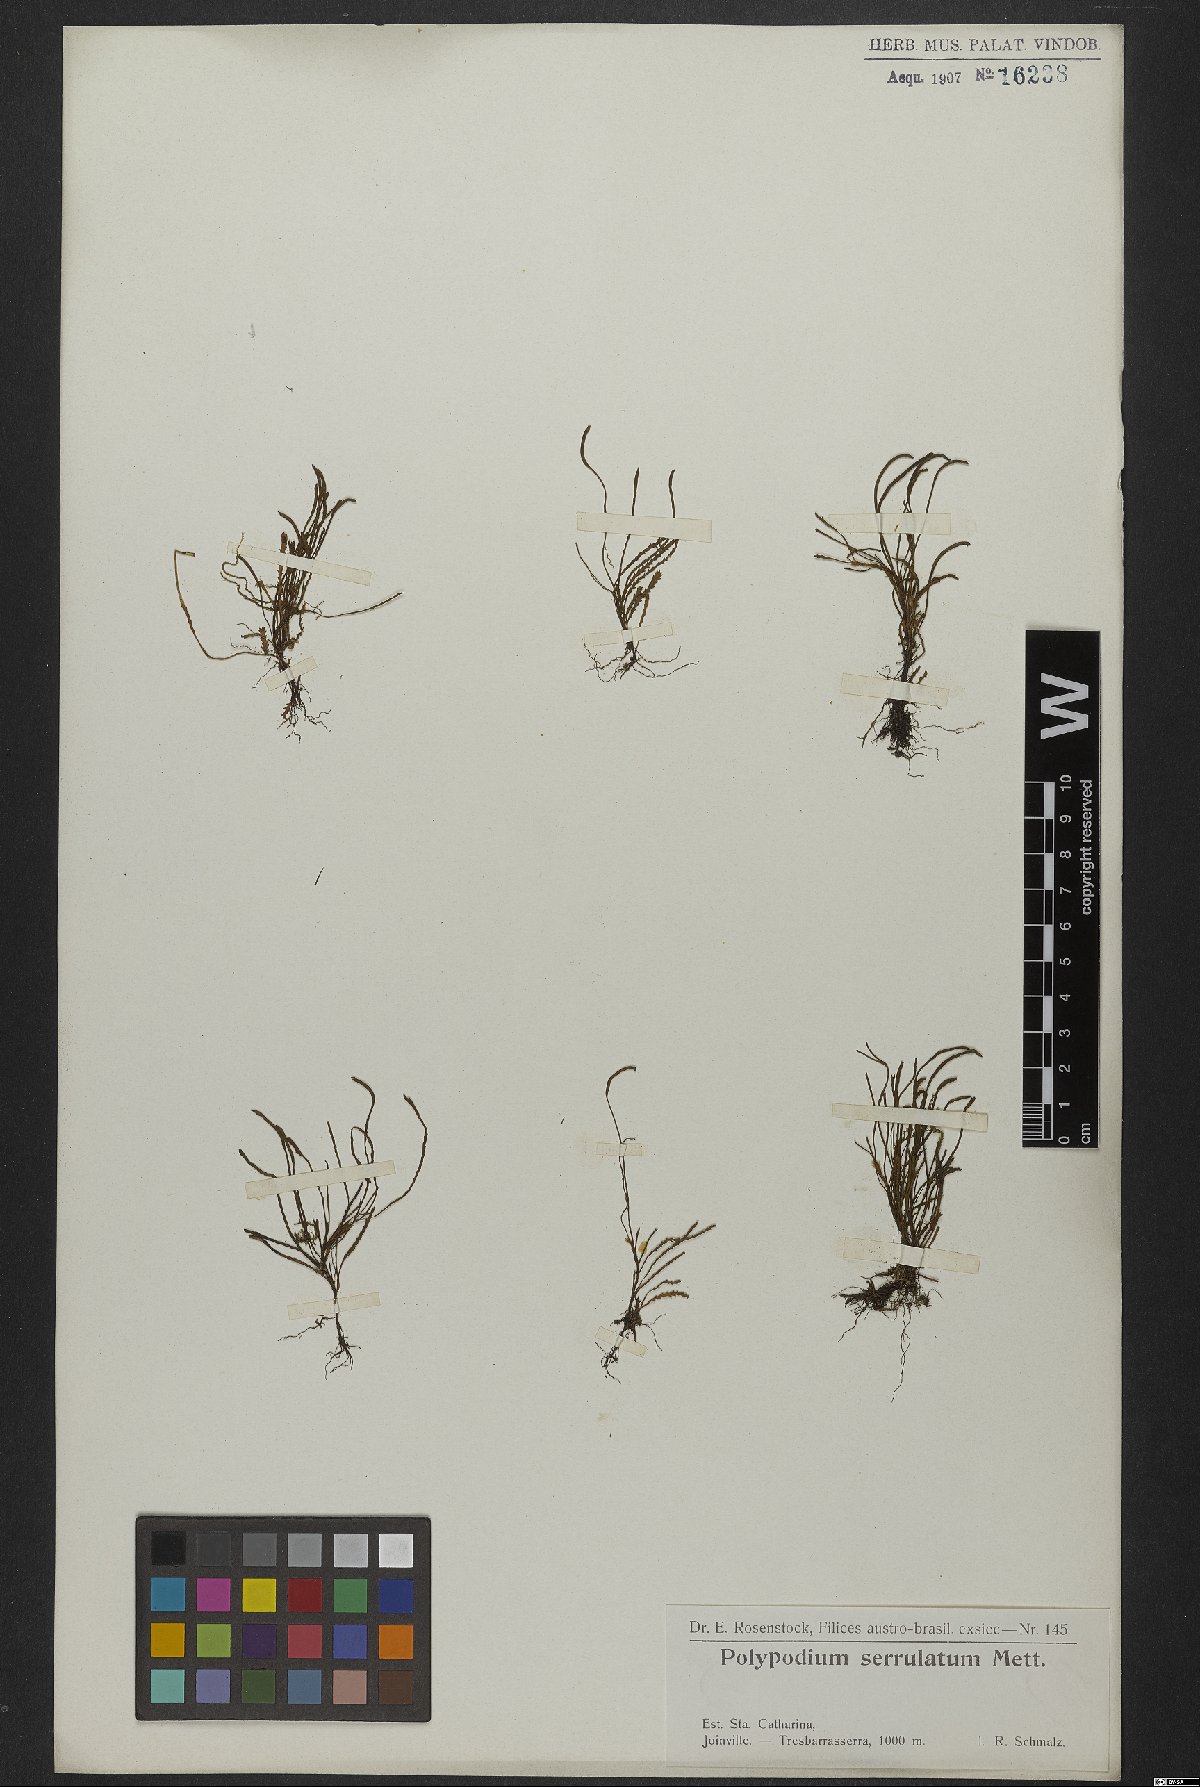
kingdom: Plantae
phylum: Tracheophyta
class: Polypodiopsida
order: Polypodiales
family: Polypodiaceae
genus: Cochlidium
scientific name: Cochlidium serrulatum
